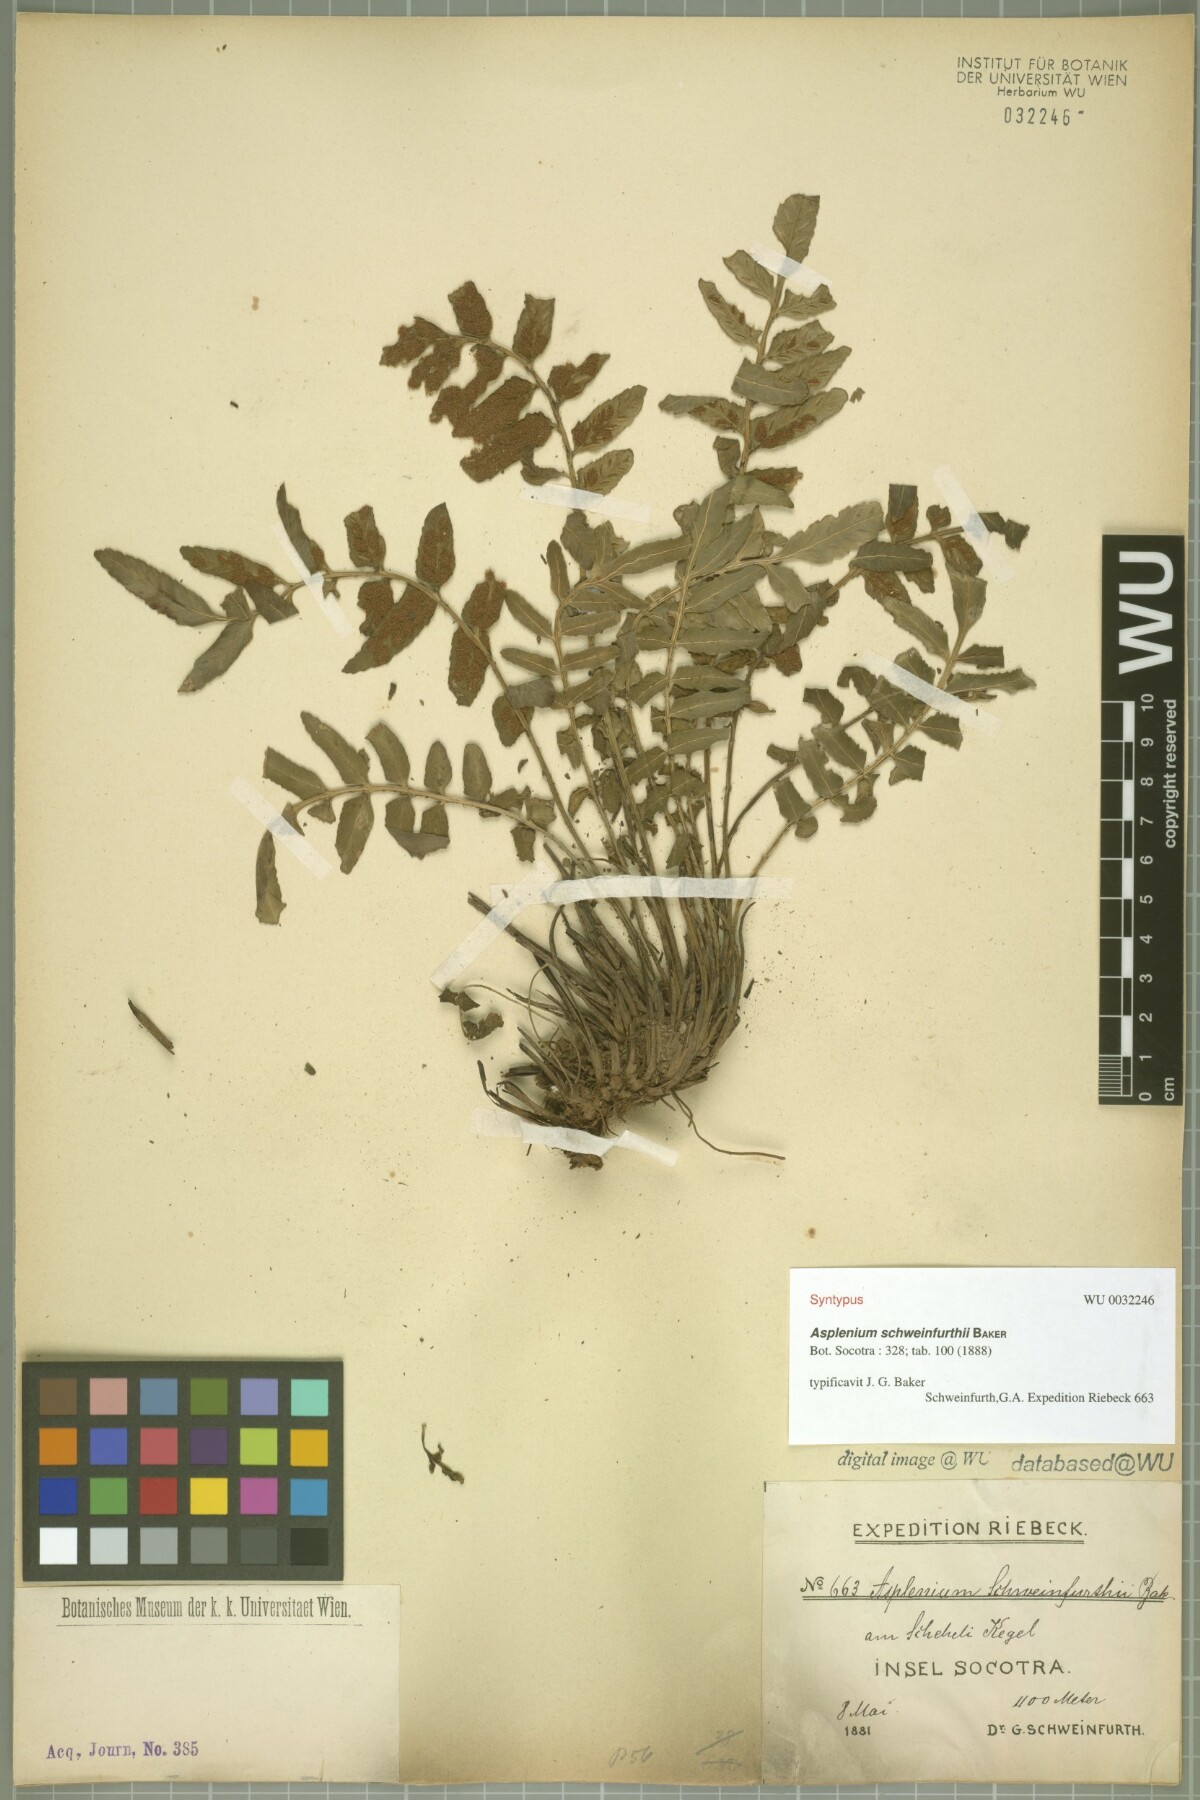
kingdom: Plantae
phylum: Tracheophyta
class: Polypodiopsida
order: Polypodiales
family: Aspleniaceae
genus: Asplenium
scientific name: Asplenium schweinfurthii
